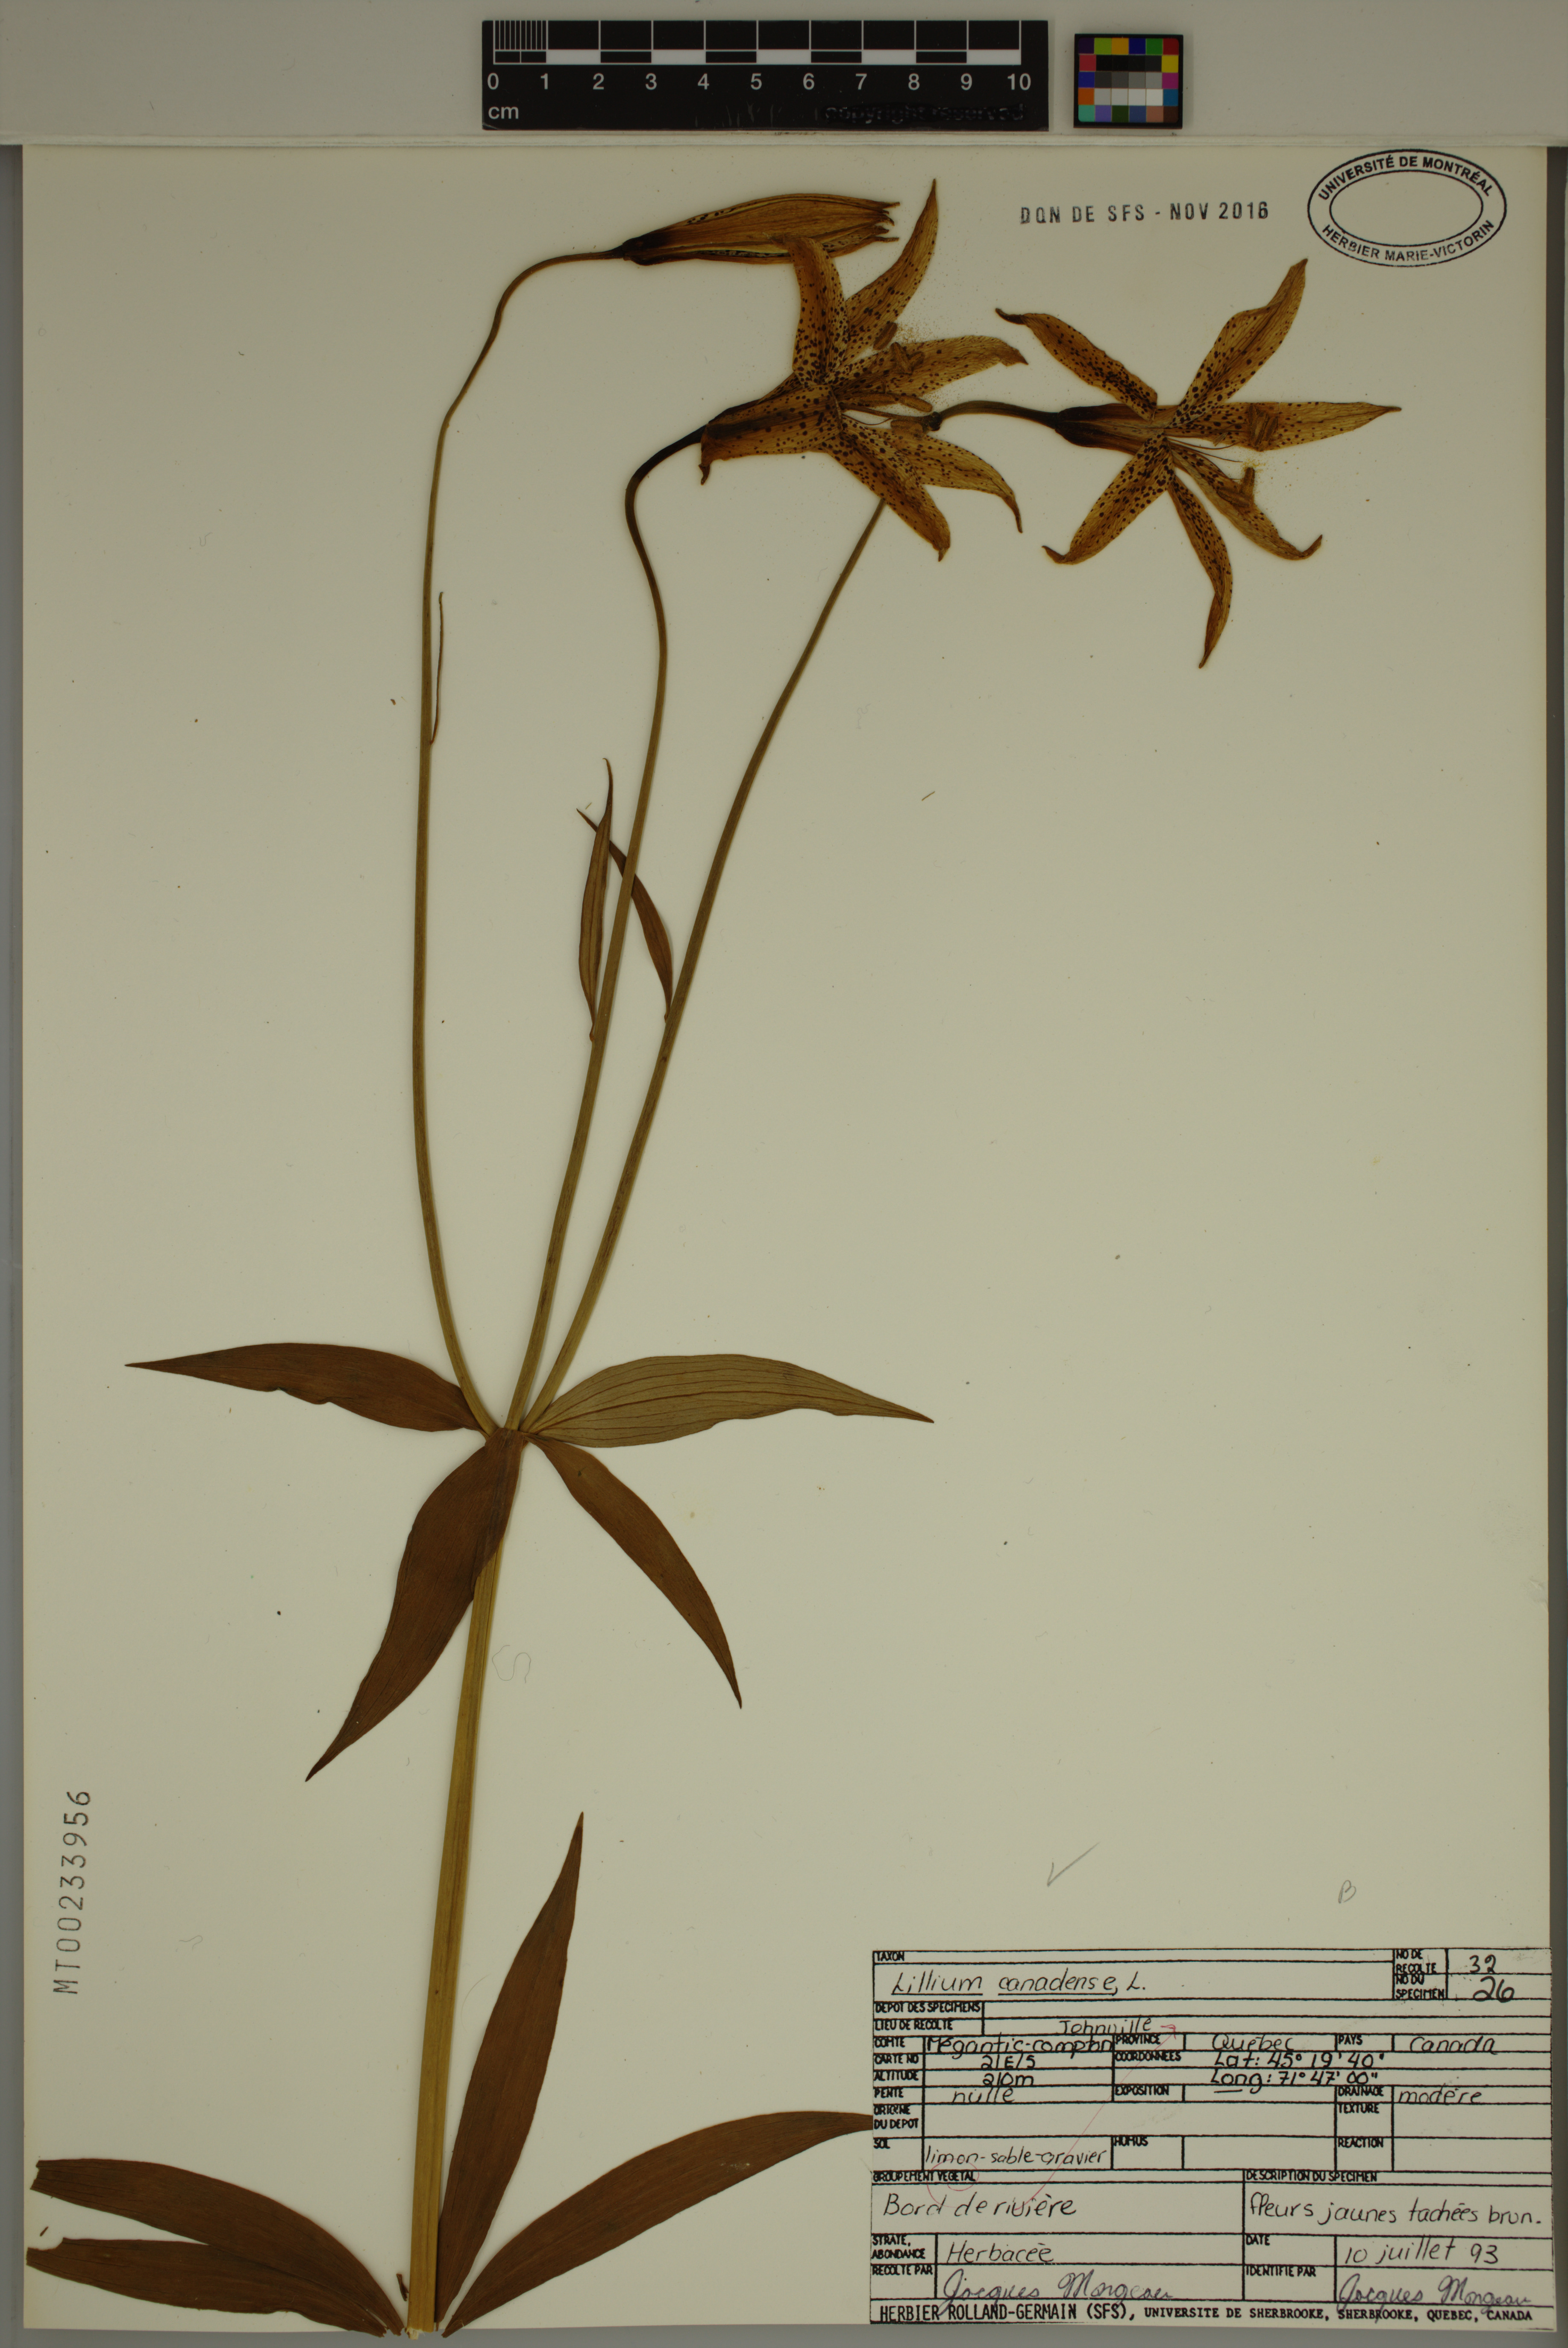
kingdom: Plantae
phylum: Tracheophyta
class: Liliopsida
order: Liliales
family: Liliaceae
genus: Lilium
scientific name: Lilium canadense
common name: Canada lily
